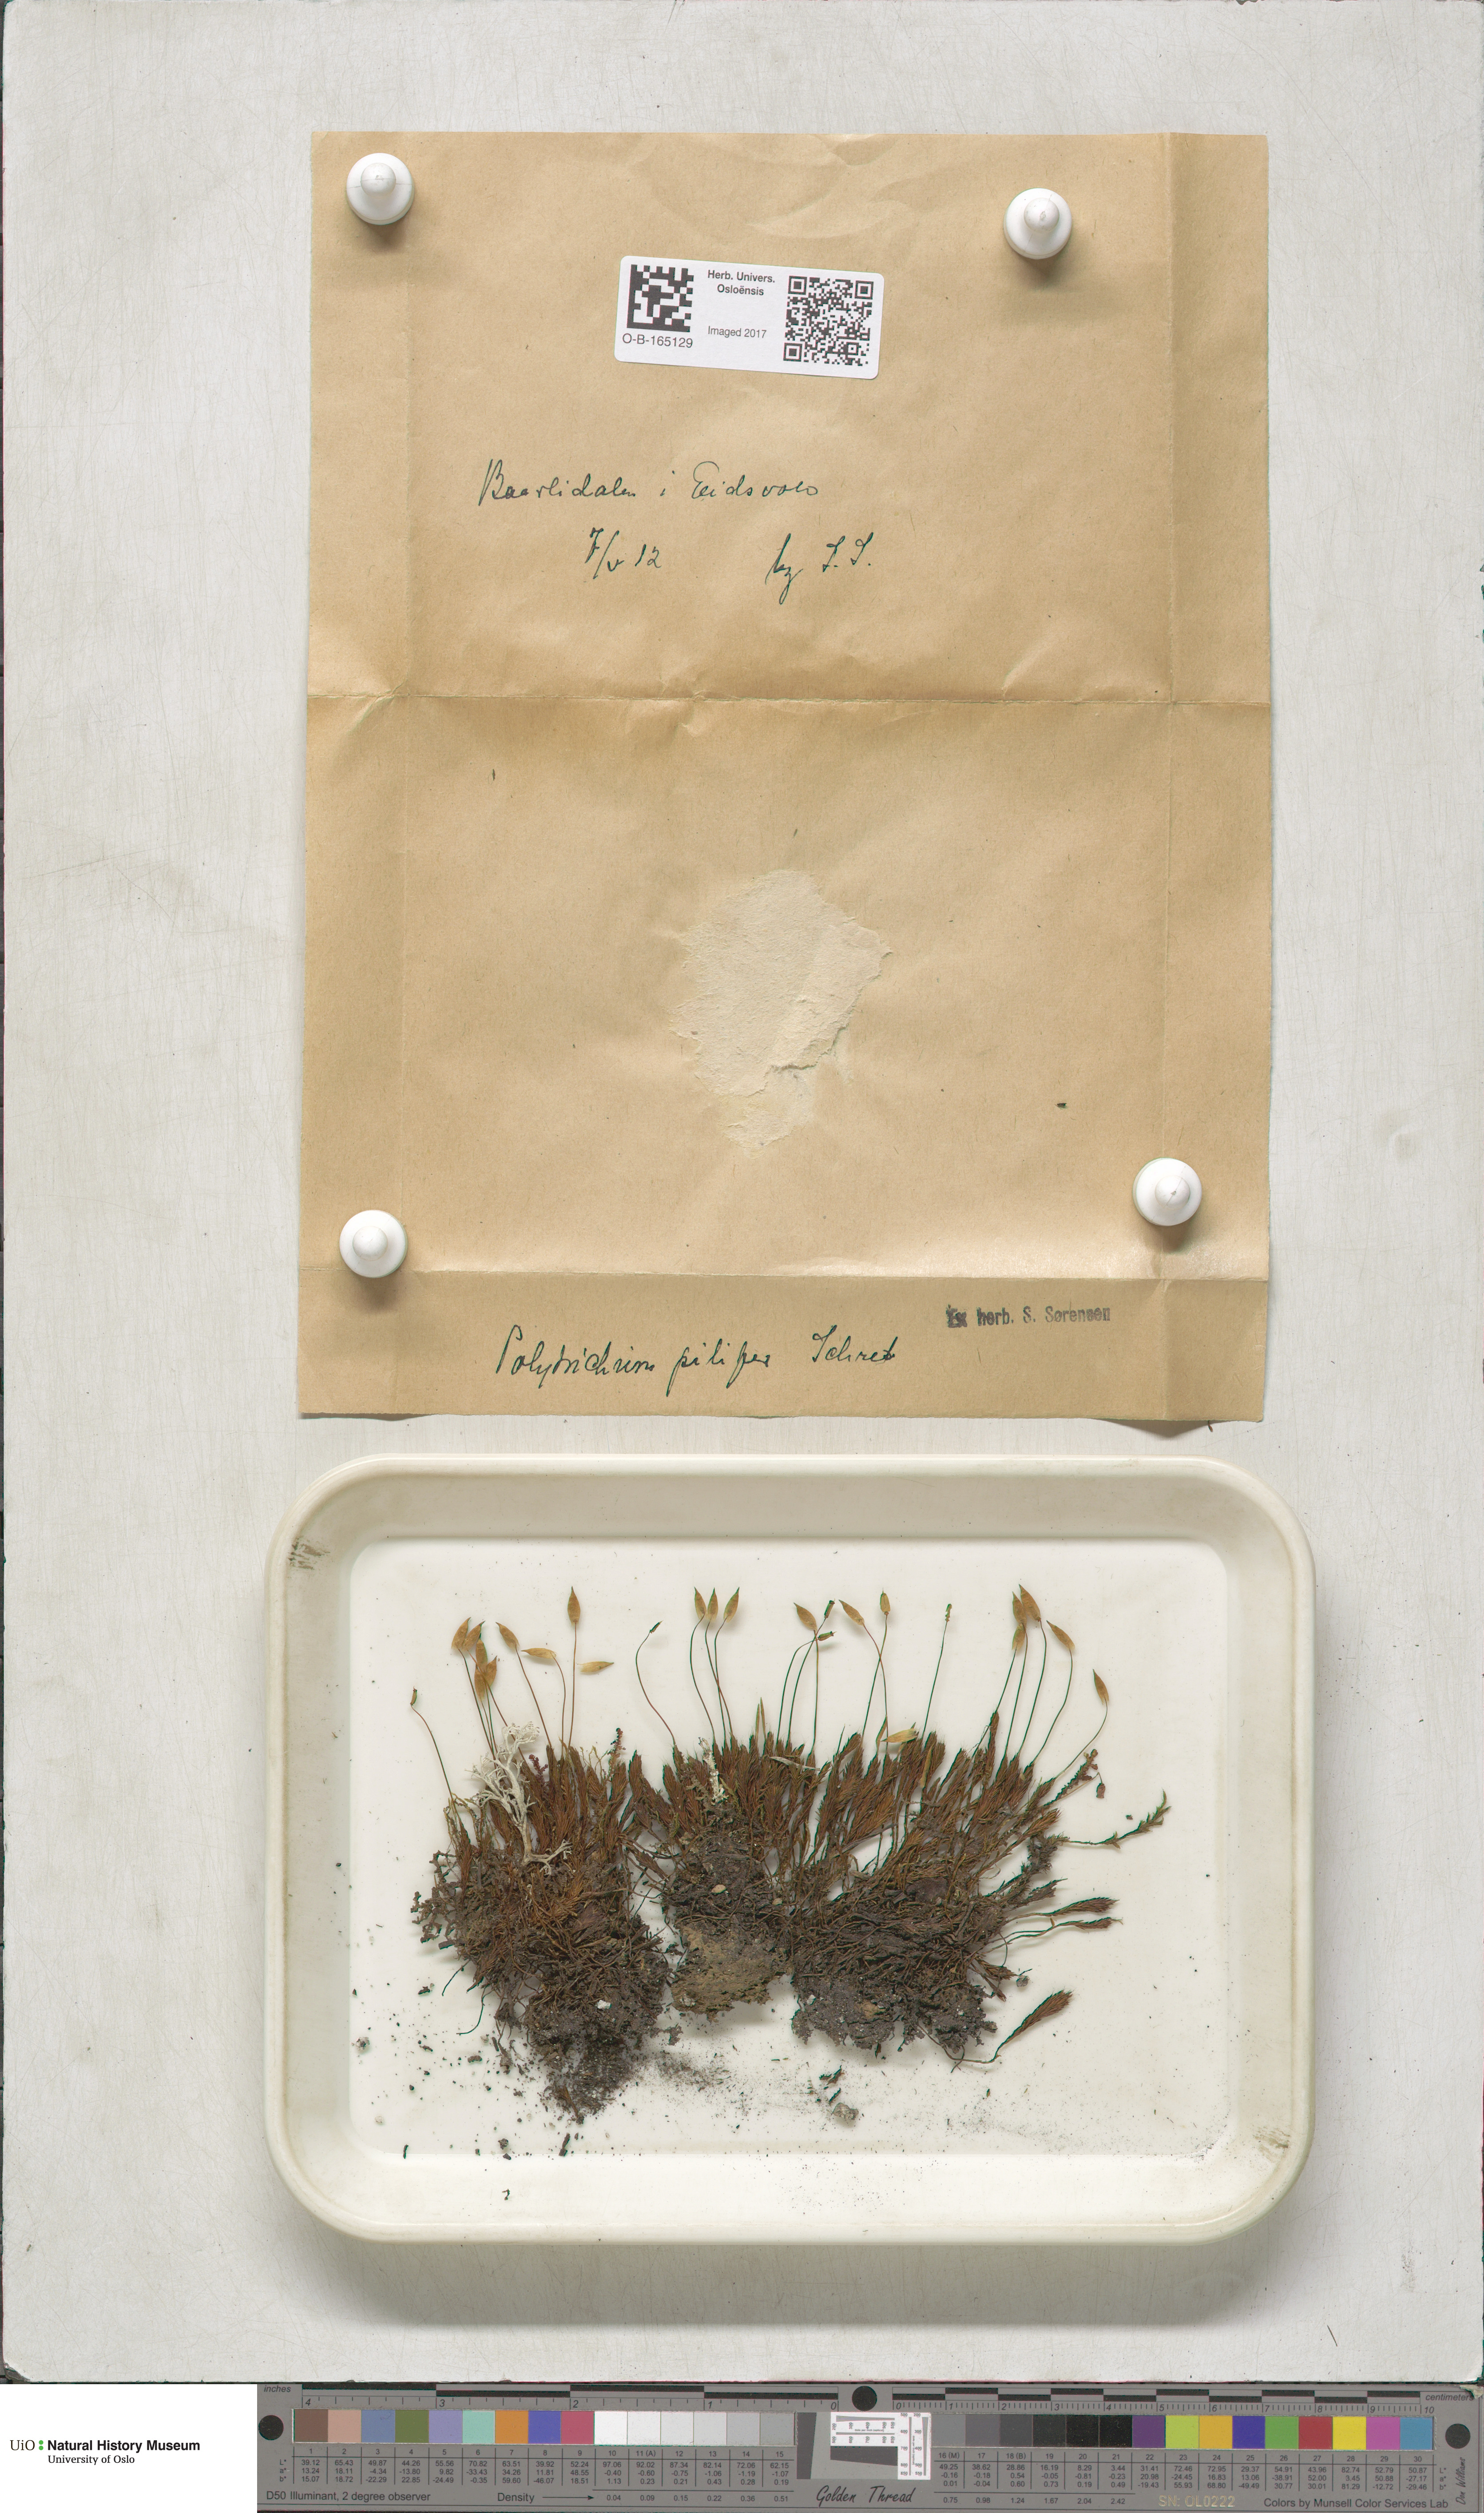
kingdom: Plantae
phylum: Bryophyta
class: Polytrichopsida
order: Polytrichales
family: Polytrichaceae
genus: Polytrichum
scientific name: Polytrichum piliferum
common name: Bristly haircap
